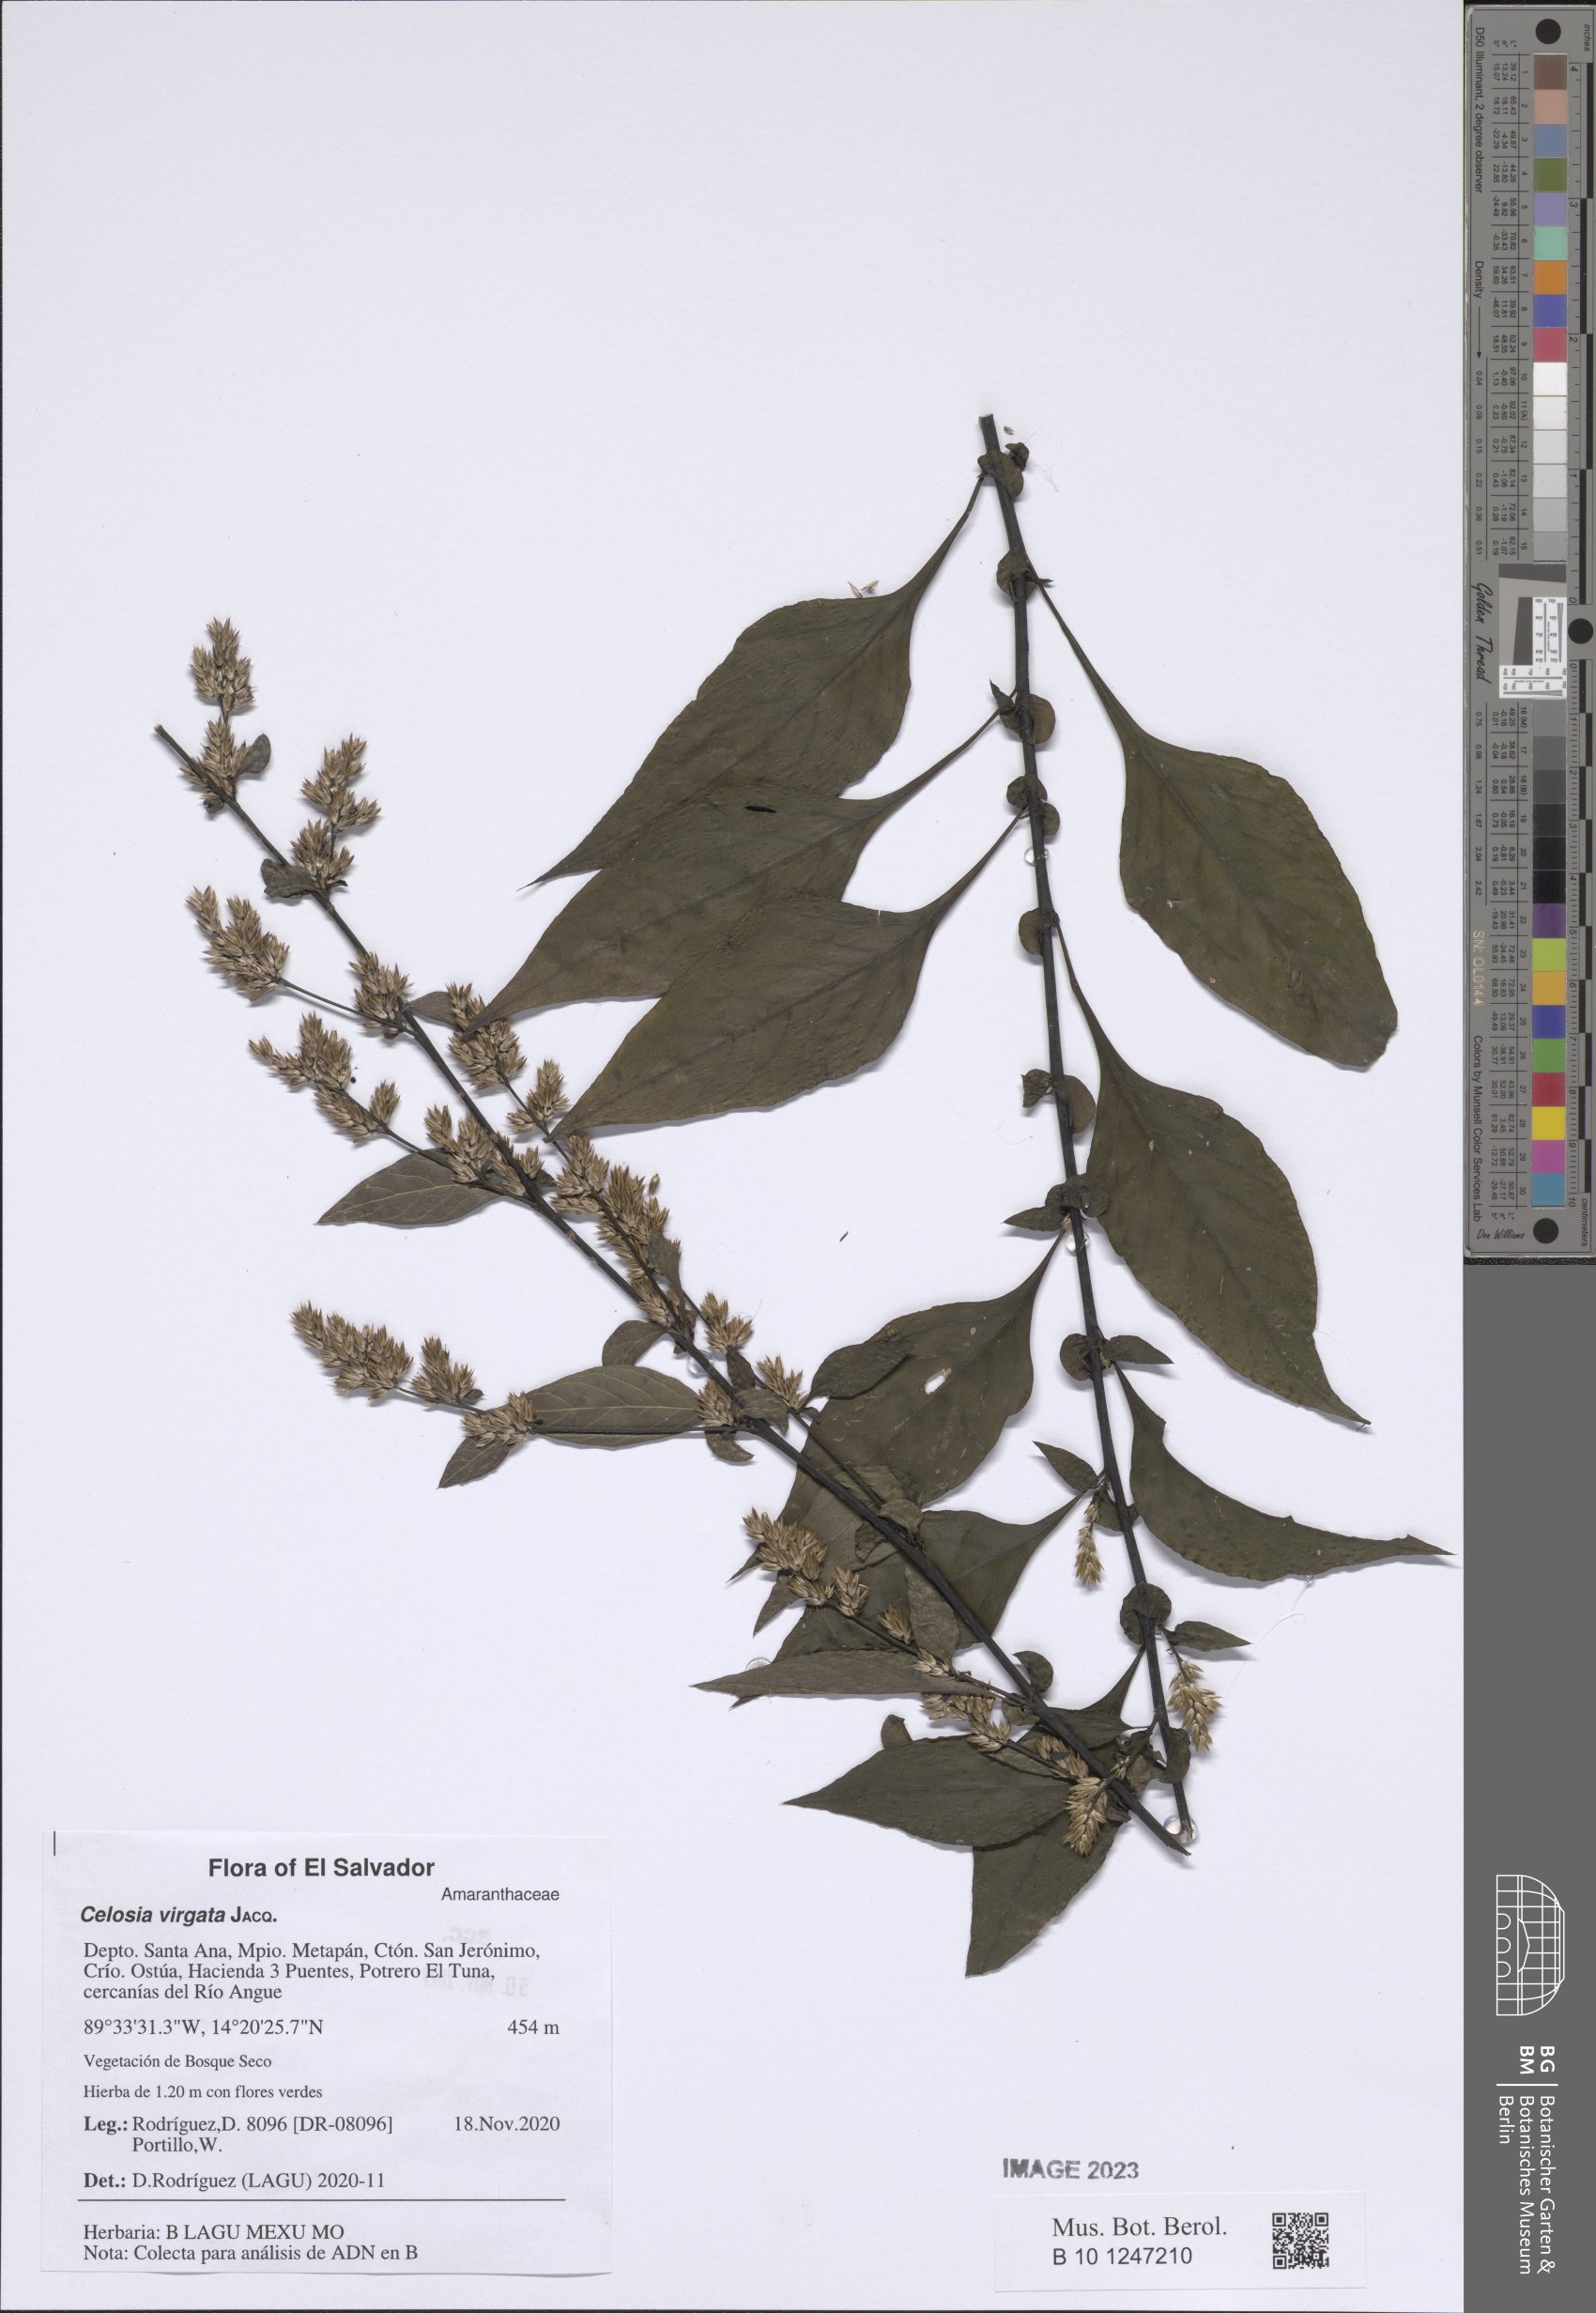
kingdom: Plantae
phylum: Tracheophyta
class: Magnoliopsida
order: Caryophyllales
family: Amaranthaceae
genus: Celosia
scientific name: Celosia virgata
